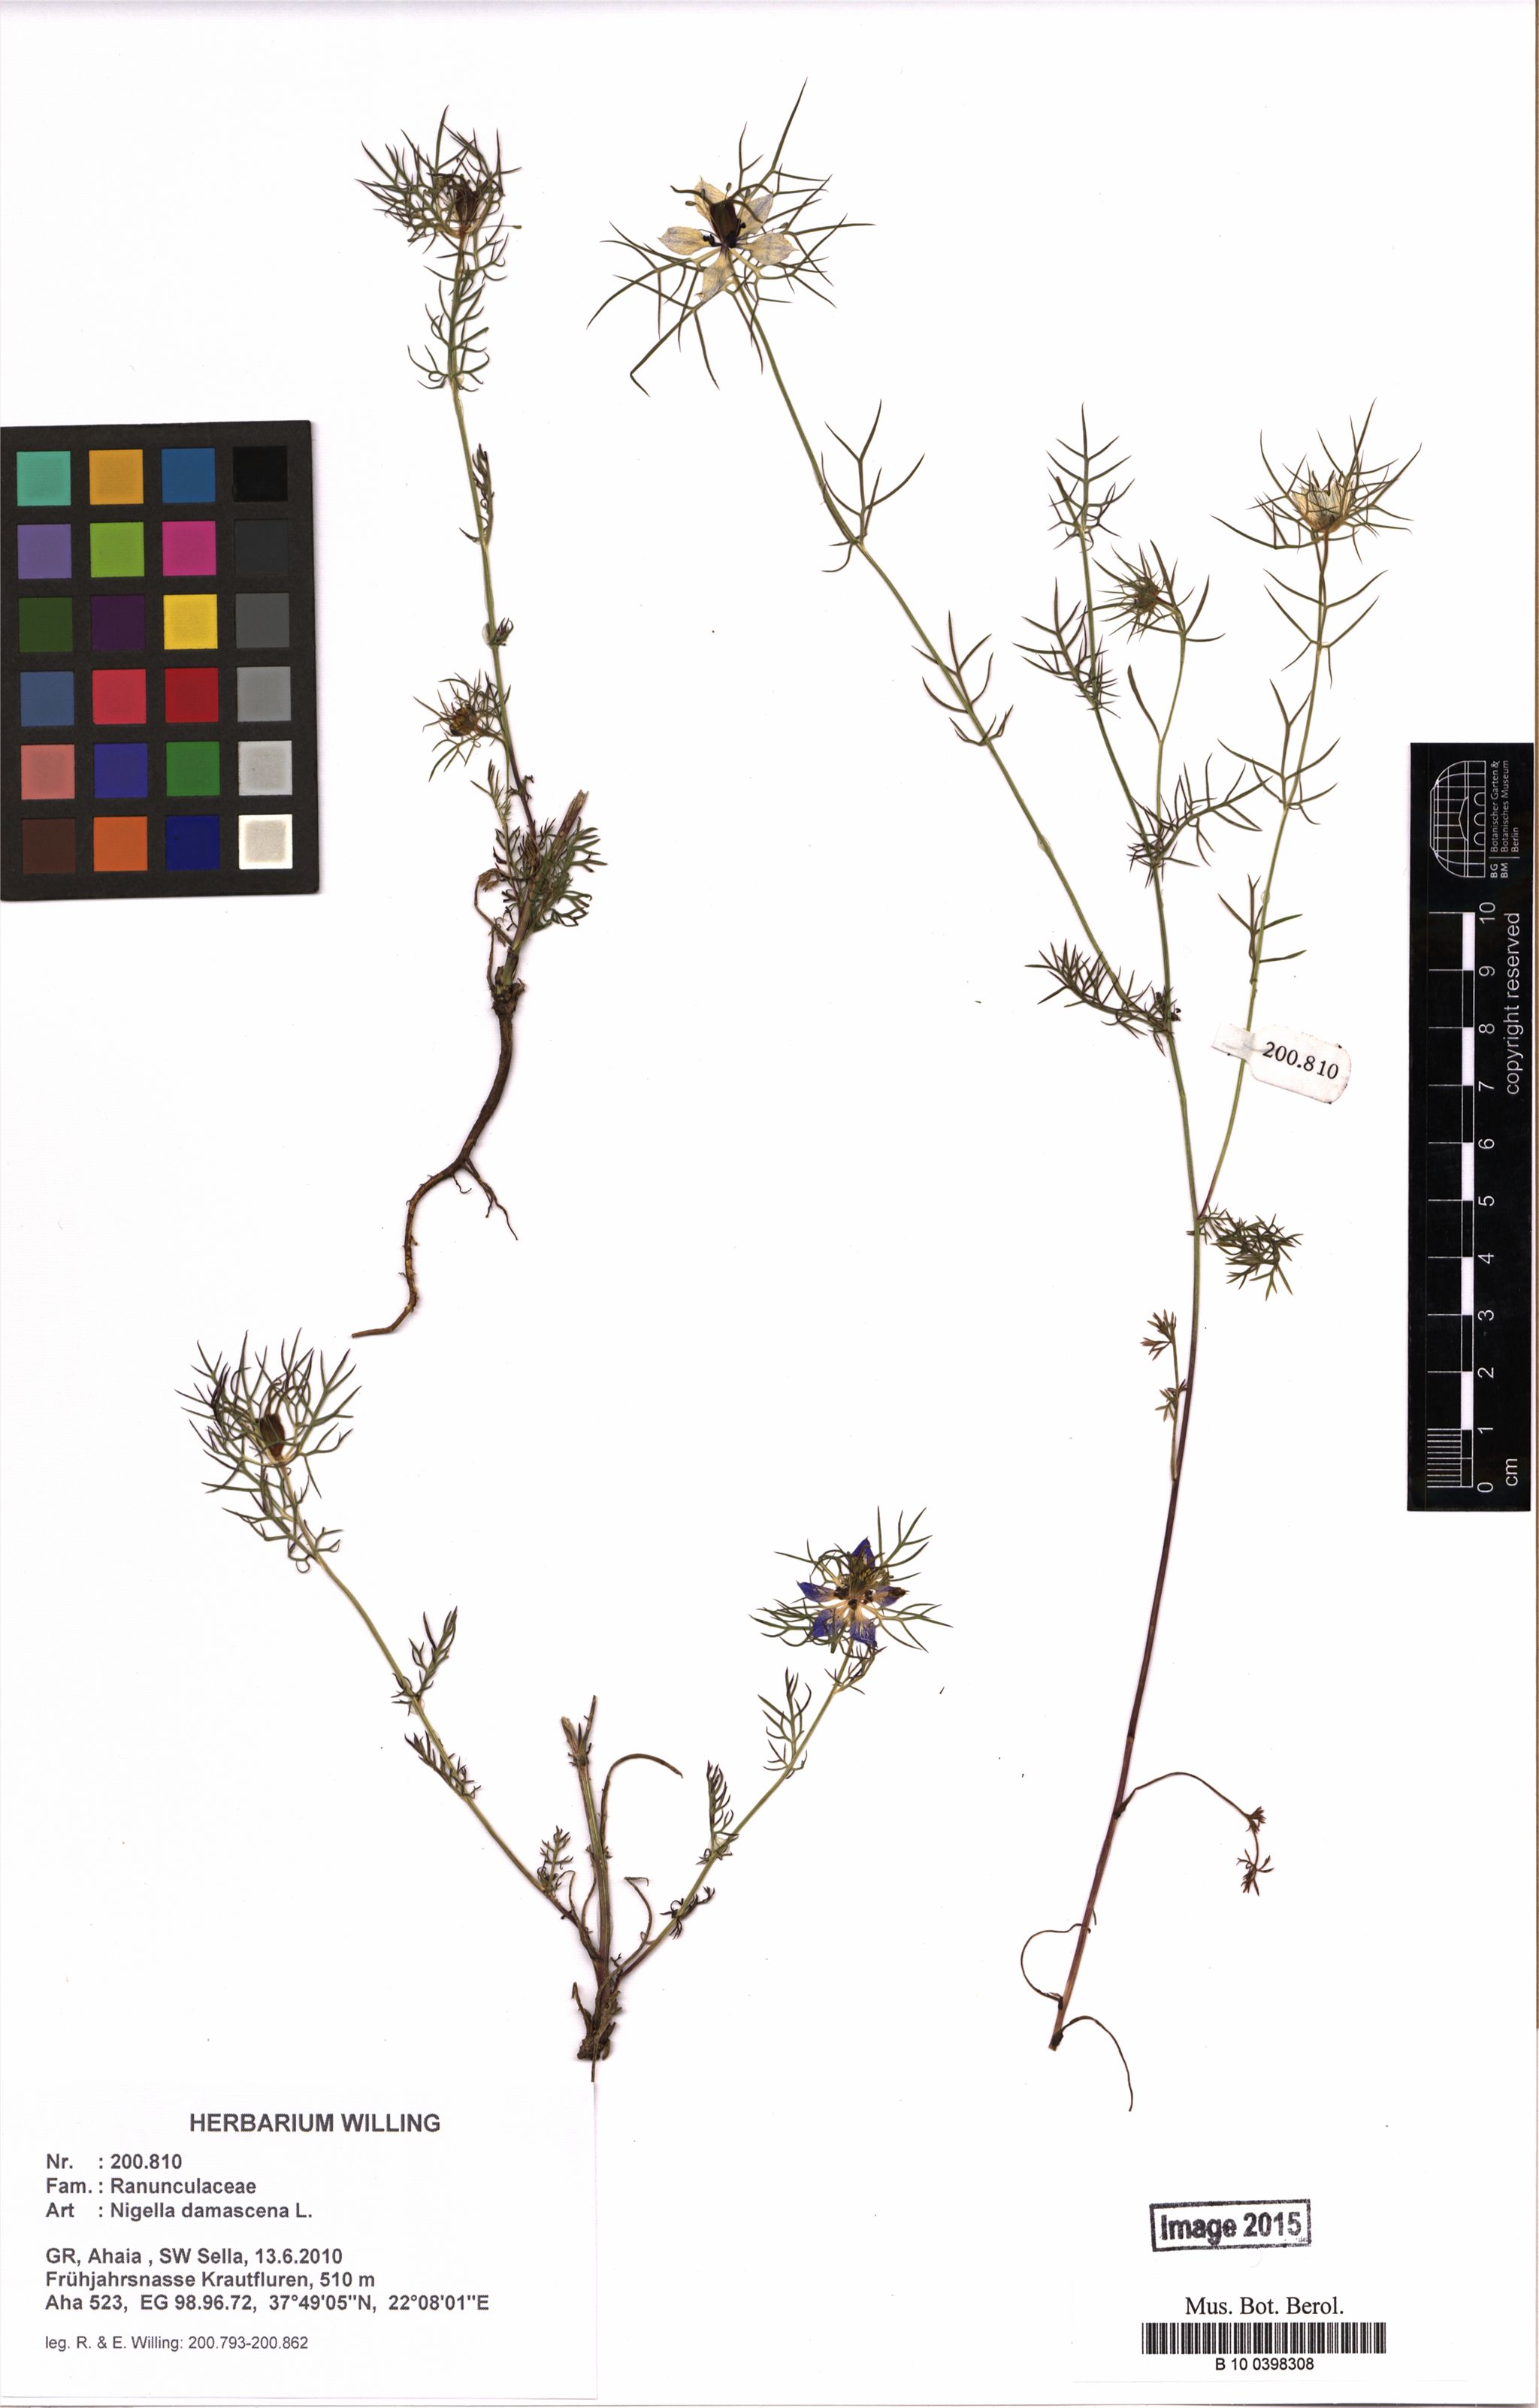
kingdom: Plantae
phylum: Tracheophyta
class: Magnoliopsida
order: Ranunculales
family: Ranunculaceae
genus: Nigella
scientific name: Nigella damascena
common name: Love-in-a-mist
